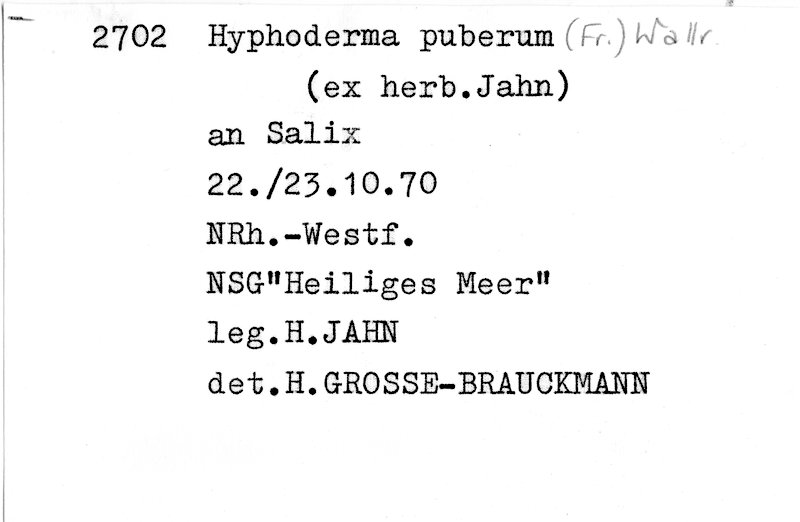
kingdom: Fungi
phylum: Basidiomycota
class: Agaricomycetes
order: Hymenochaetales
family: Rickenellaceae
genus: Peniophorella
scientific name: Peniophorella pubera
